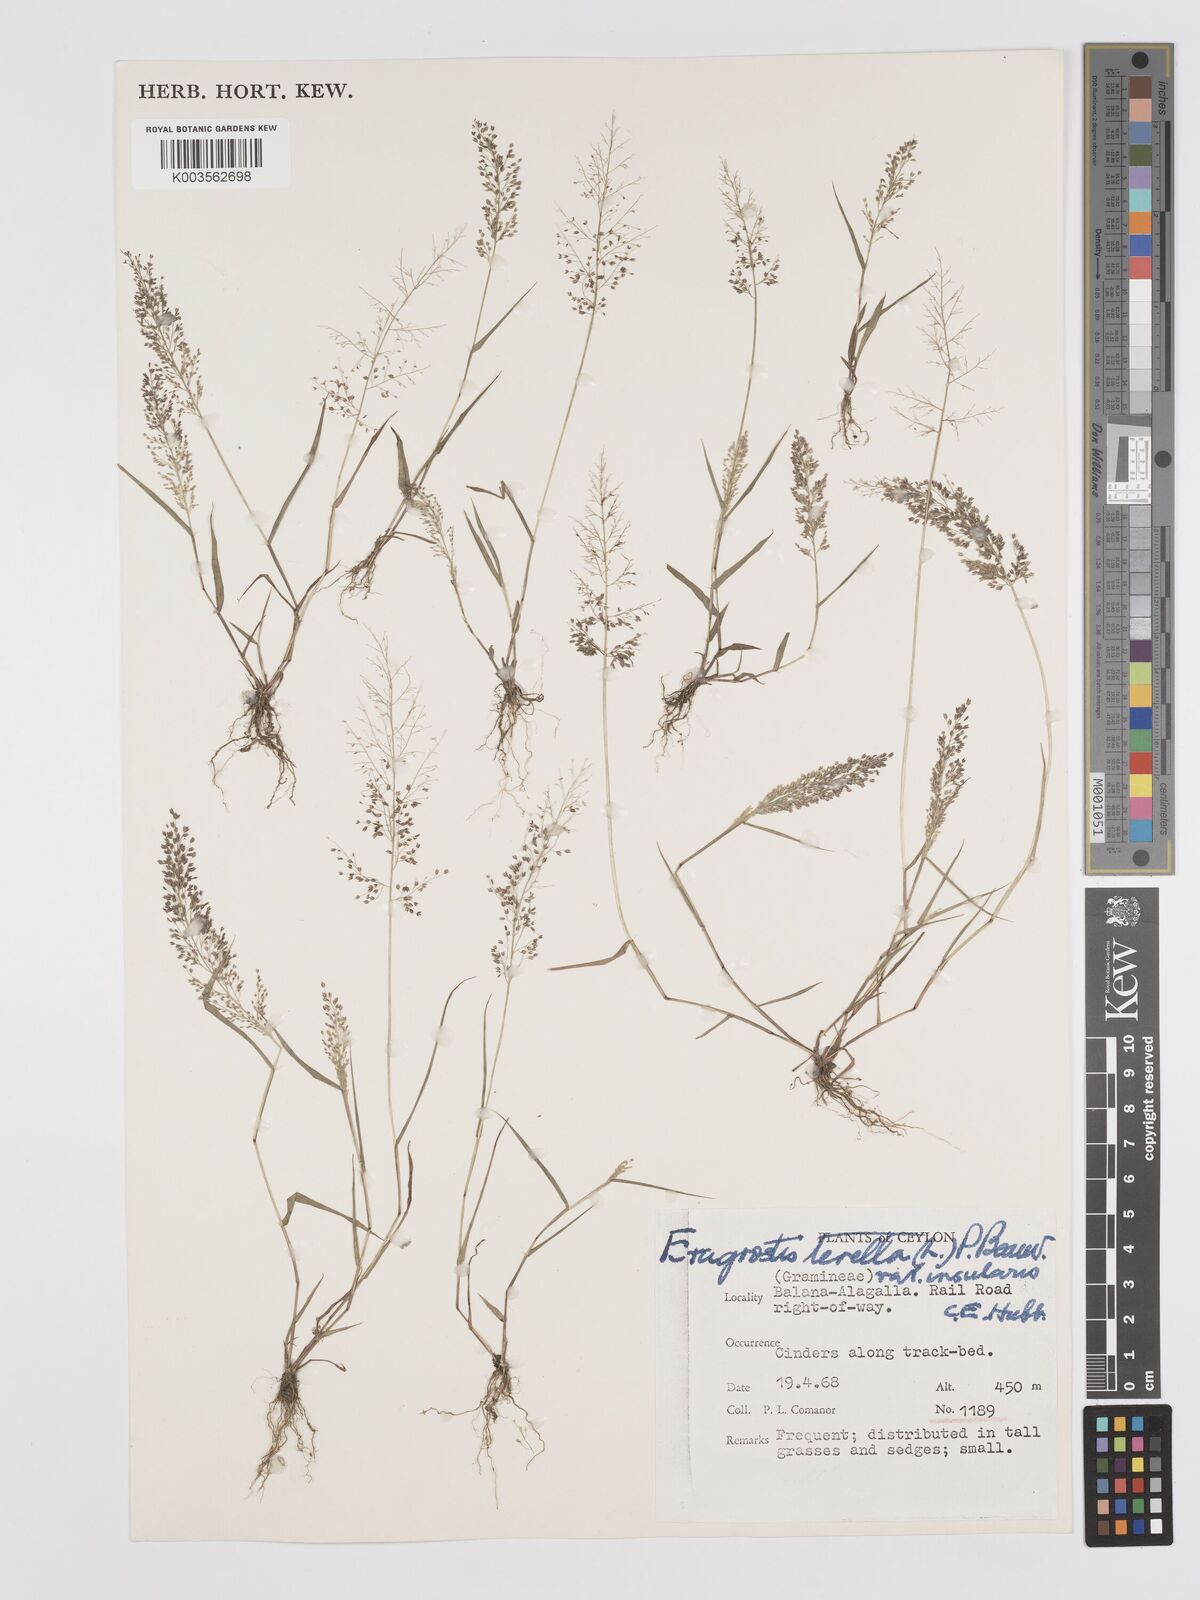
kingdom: Plantae
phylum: Tracheophyta
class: Liliopsida
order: Poales
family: Poaceae
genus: Eragrostis
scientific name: Eragrostis tenella
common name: Japanese lovegrass
